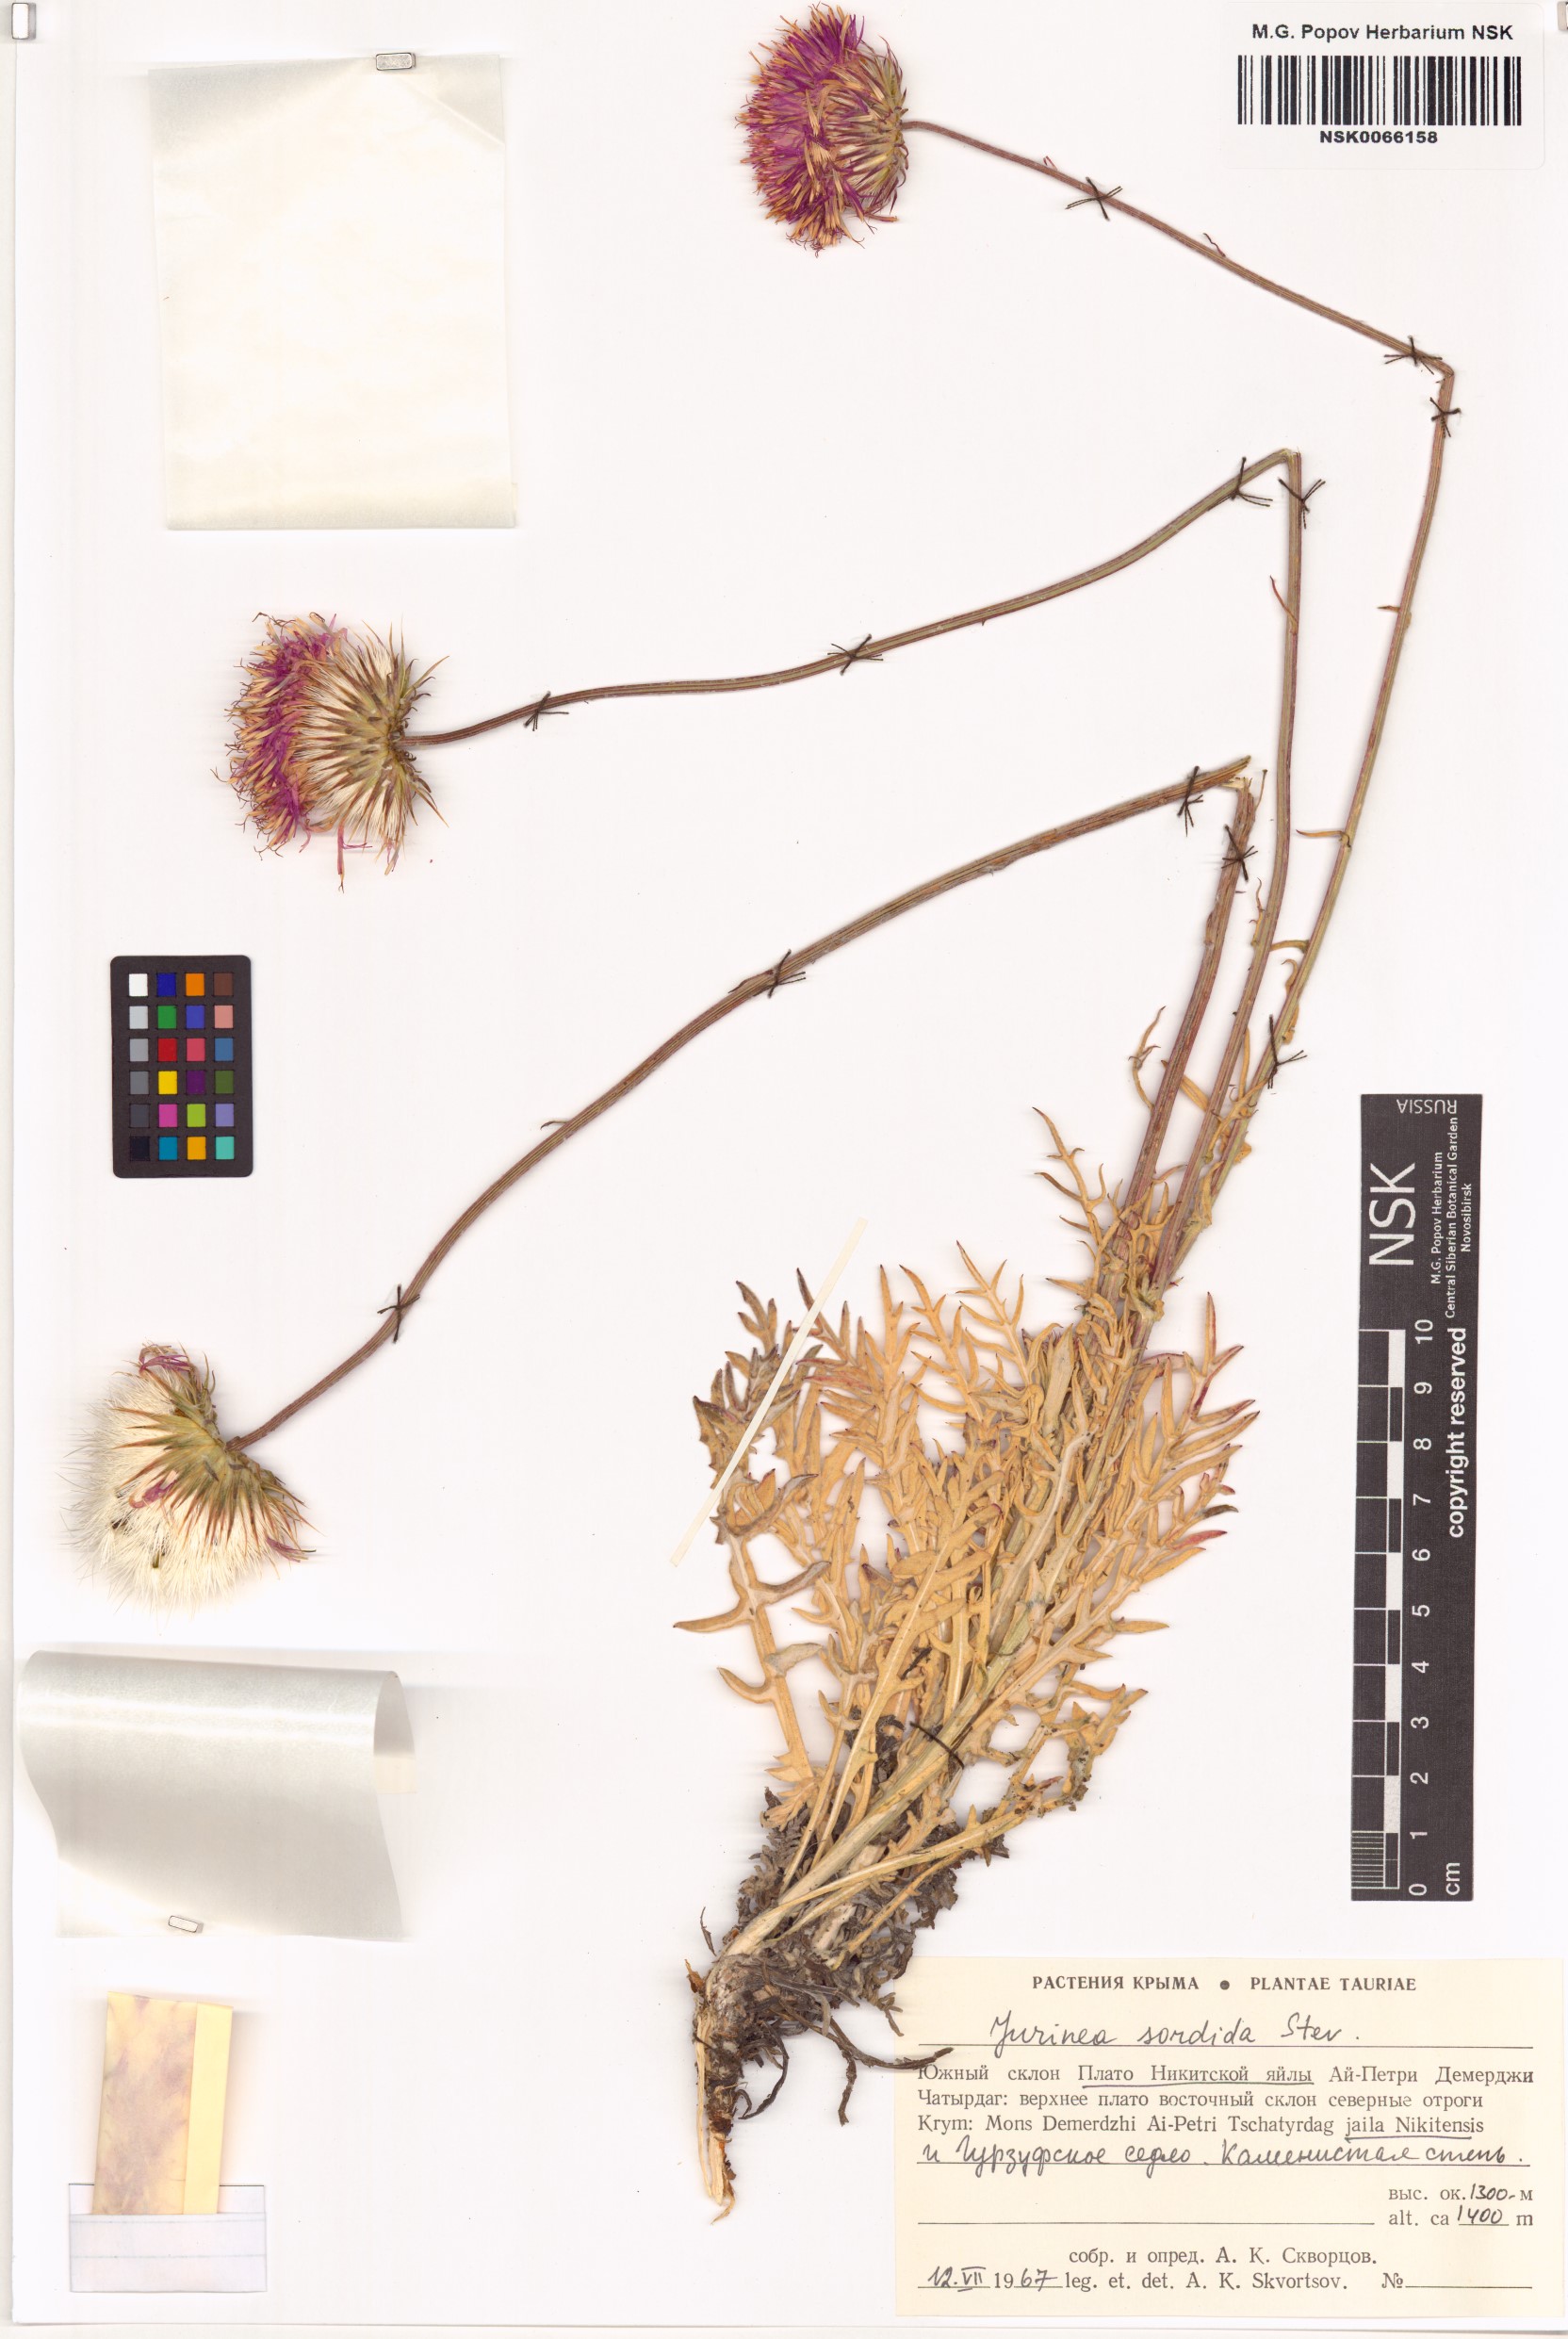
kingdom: Plantae
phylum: Tracheophyta
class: Magnoliopsida
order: Asterales
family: Asteraceae
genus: Jurinea
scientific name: Jurinea ledebourii
